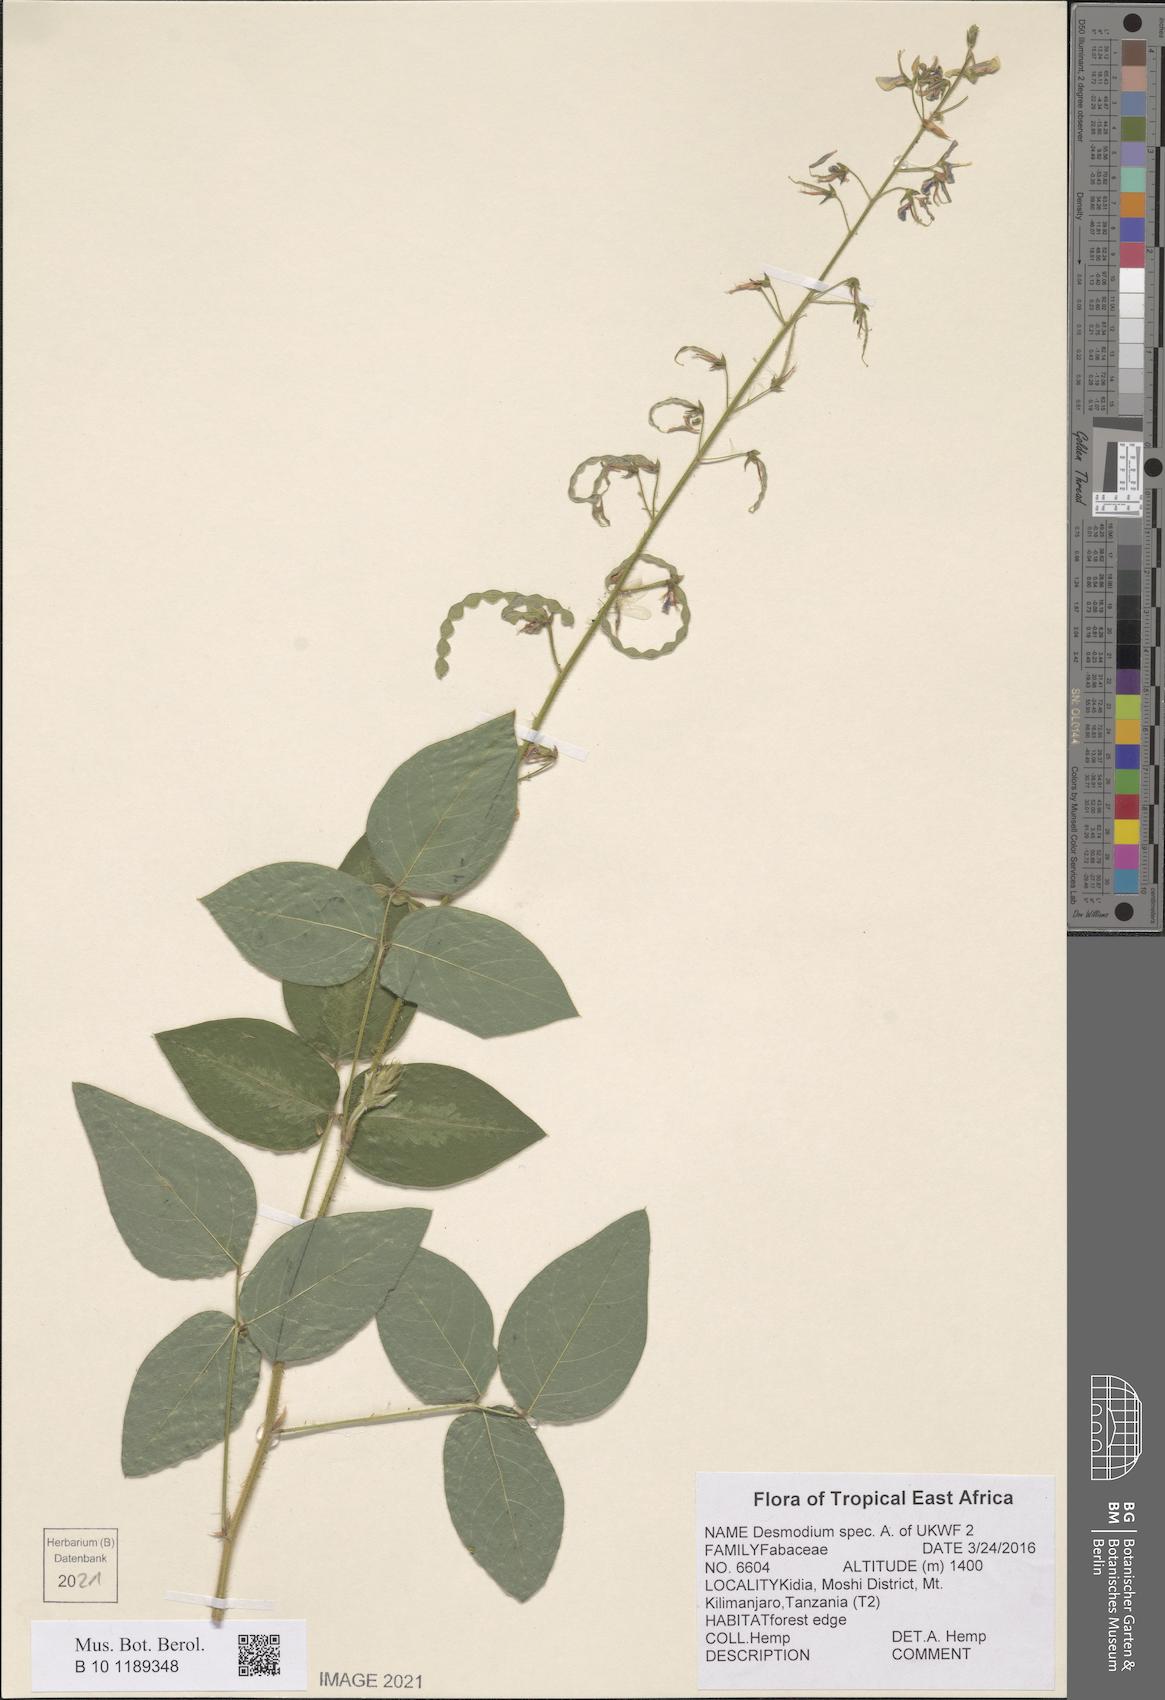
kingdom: Plantae
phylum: Tracheophyta
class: Magnoliopsida
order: Fabales
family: Fabaceae
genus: Desmodium
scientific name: Desmodium
